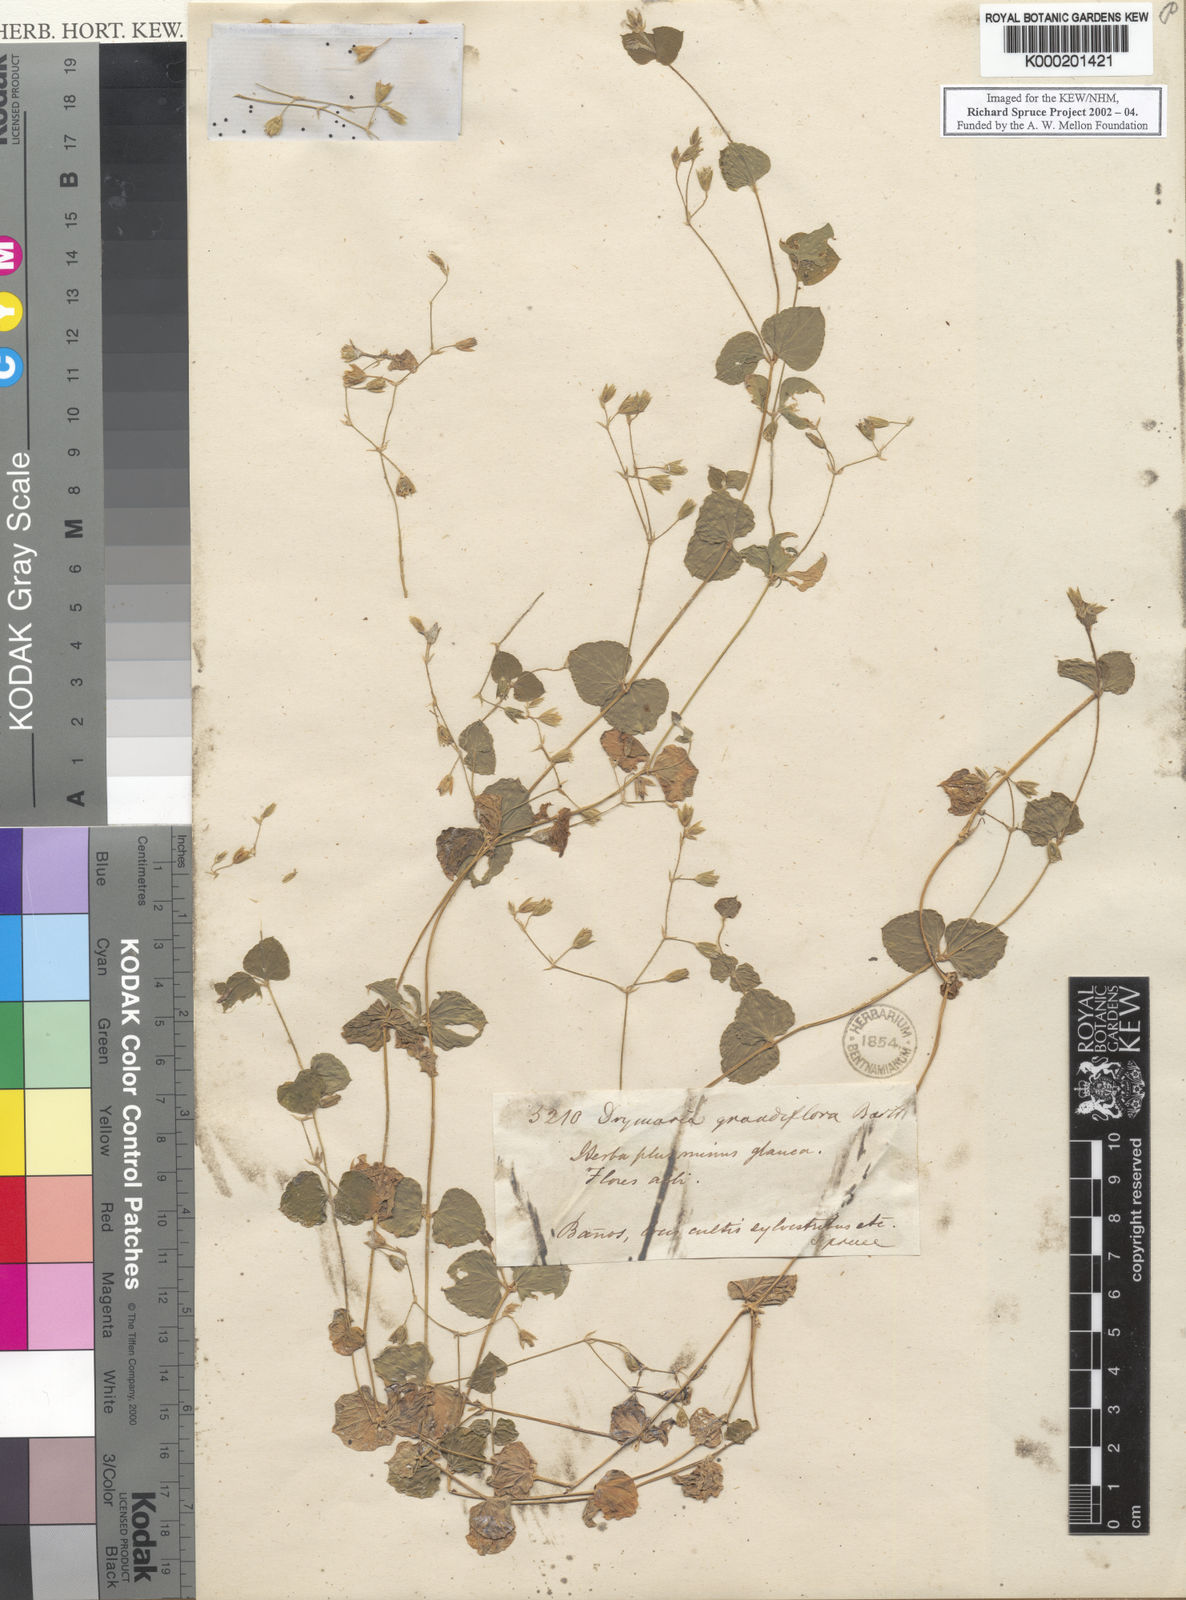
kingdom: Plantae
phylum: Tracheophyta
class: Magnoliopsida
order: Caryophyllales
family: Caryophyllaceae
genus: Drymaria
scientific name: Drymaria grandiflora
